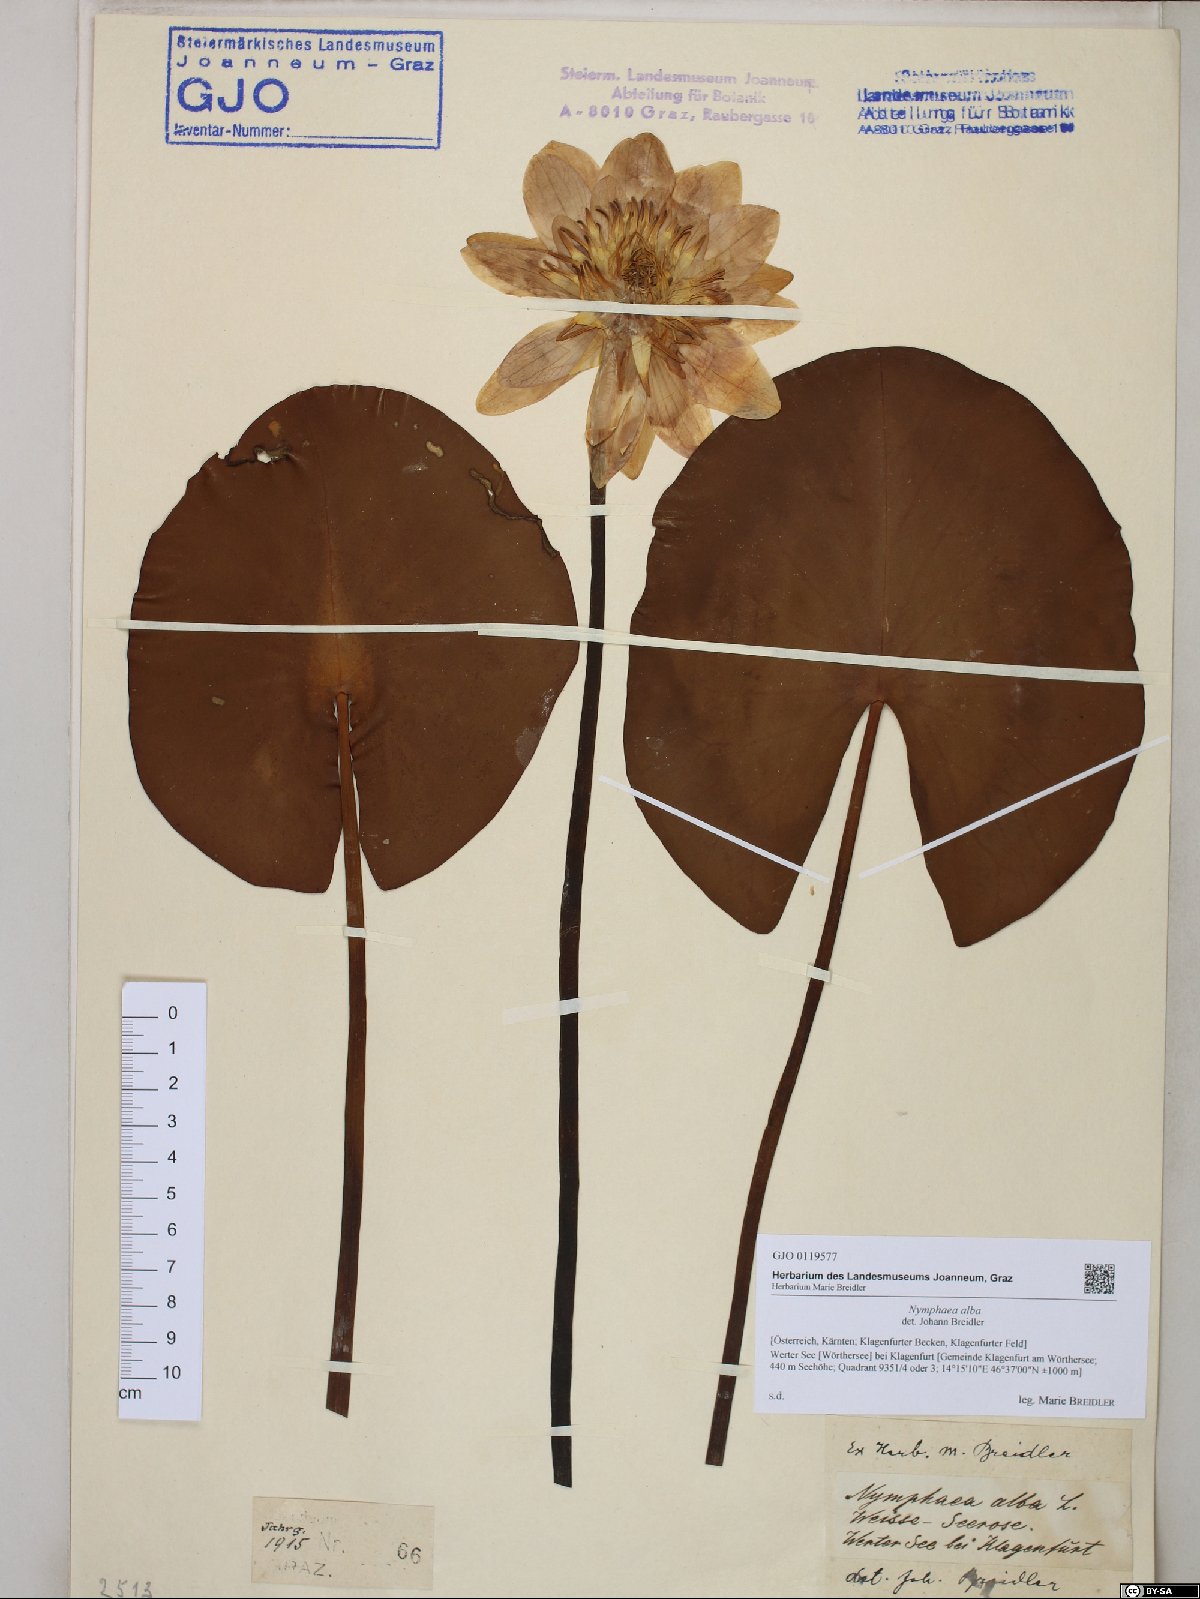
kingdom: Plantae
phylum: Tracheophyta
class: Magnoliopsida
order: Nymphaeales
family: Nymphaeaceae
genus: Nymphaea
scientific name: Nymphaea alba
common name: White water-lily
